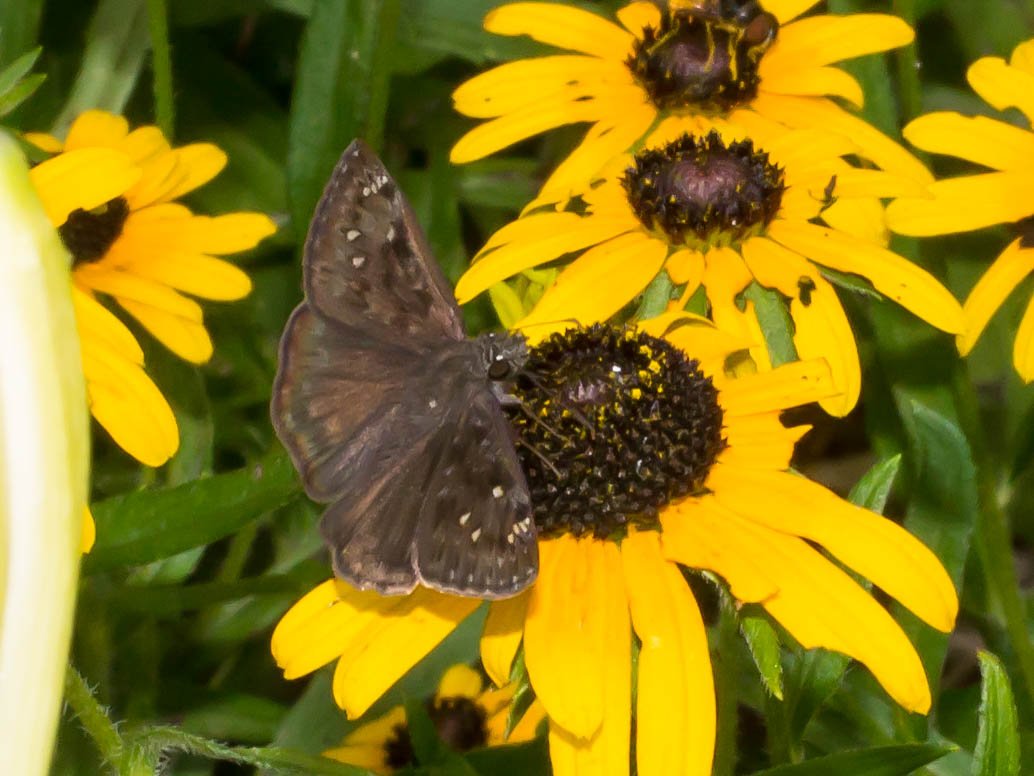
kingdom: Animalia
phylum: Arthropoda
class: Insecta
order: Lepidoptera
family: Hesperiidae
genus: Gesta
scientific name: Gesta
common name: Horace's Duskywing
